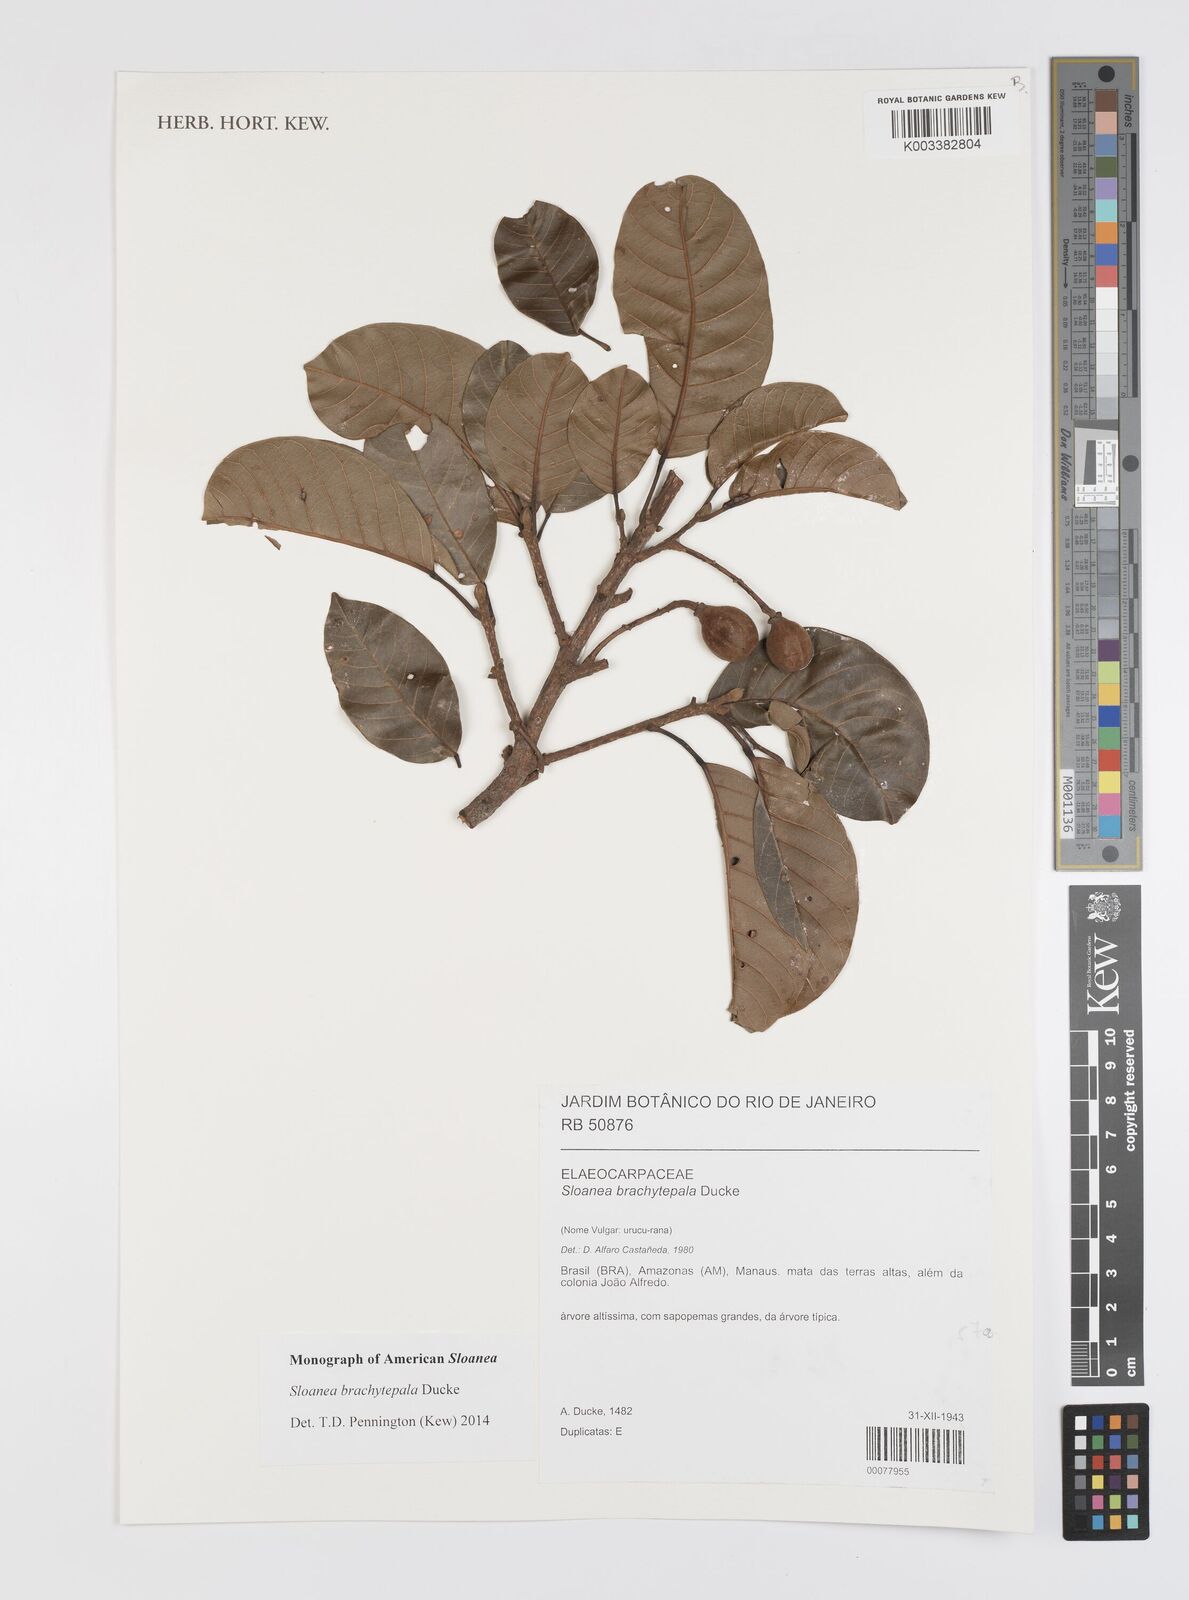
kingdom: Plantae
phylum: Tracheophyta
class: Magnoliopsida
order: Oxalidales
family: Elaeocarpaceae
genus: Sloanea
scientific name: Sloanea brachytepala
